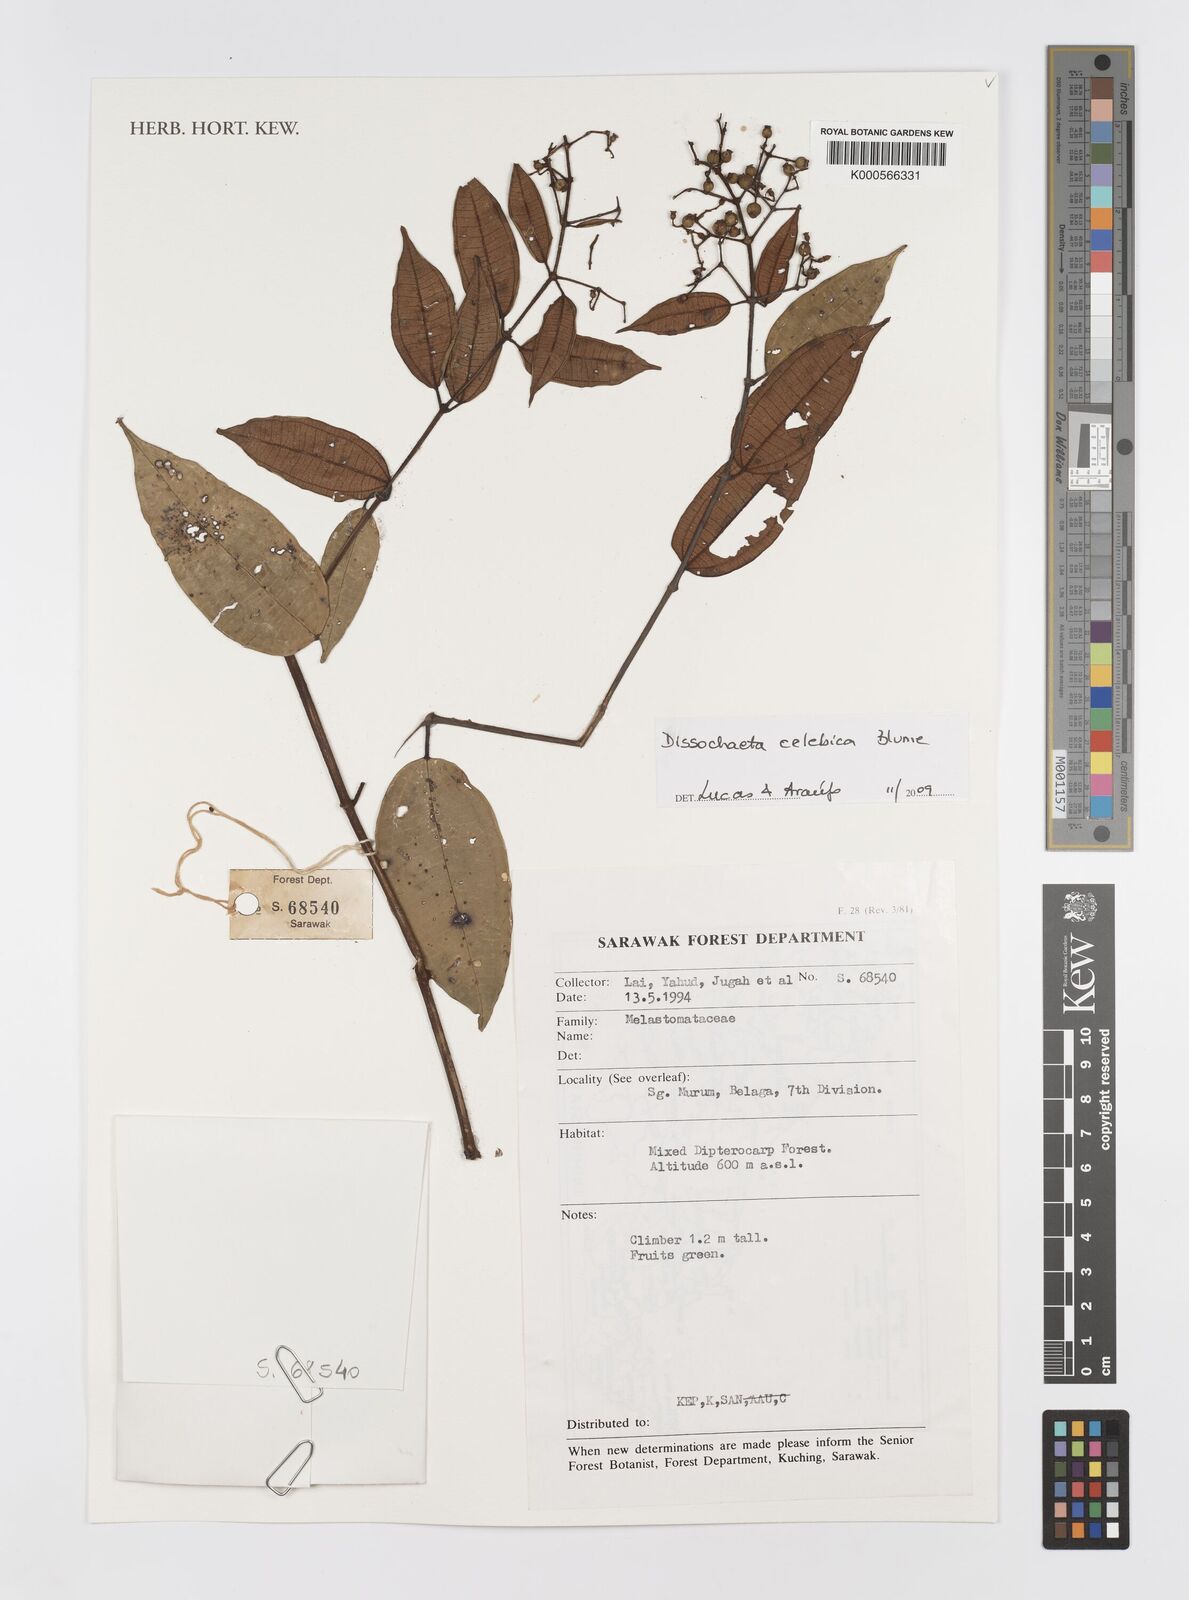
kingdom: Plantae
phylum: Tracheophyta
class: Magnoliopsida
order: Myrtales
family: Melastomataceae
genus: Dissochaeta
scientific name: Dissochaeta celebica
